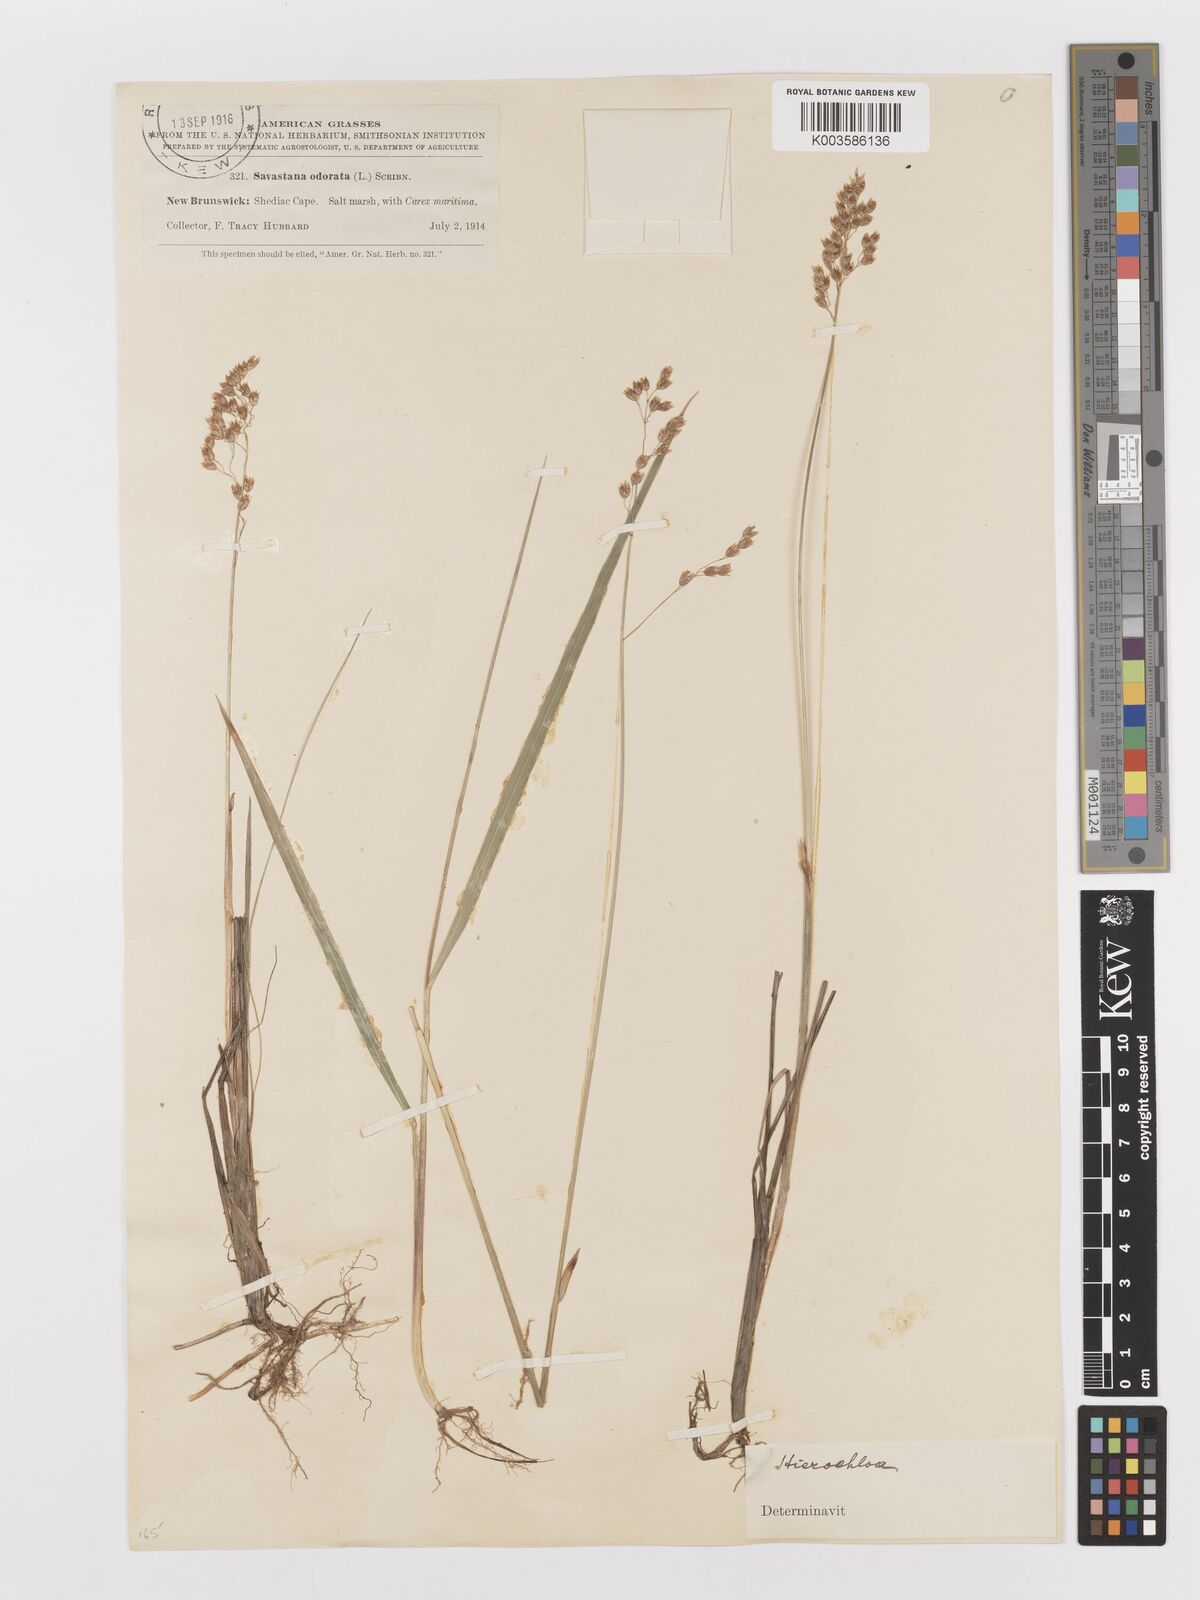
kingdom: Plantae
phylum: Tracheophyta
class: Liliopsida
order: Poales
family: Poaceae
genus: Anthoxanthum
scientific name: Anthoxanthum nitens
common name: Holy grass
